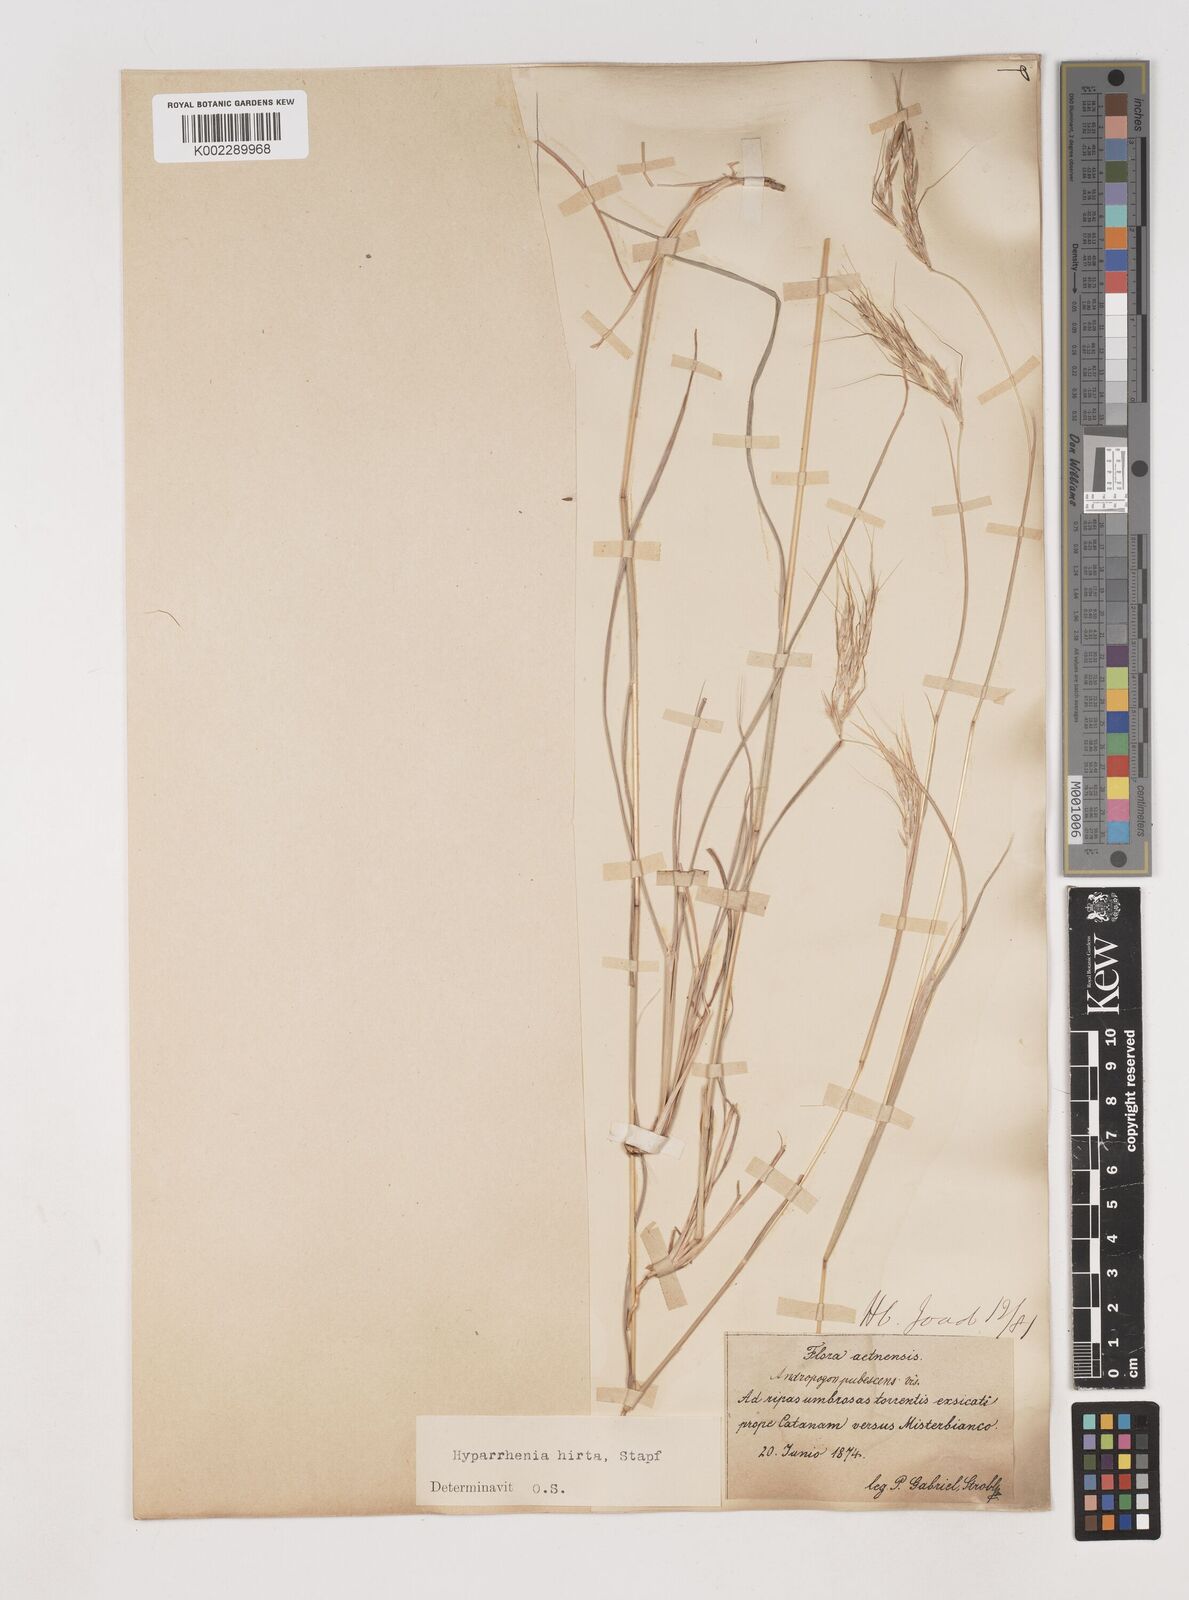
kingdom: Plantae
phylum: Tracheophyta
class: Liliopsida
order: Poales
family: Poaceae
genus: Hyparrhenia
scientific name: Hyparrhenia hirta
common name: Thatching grass
